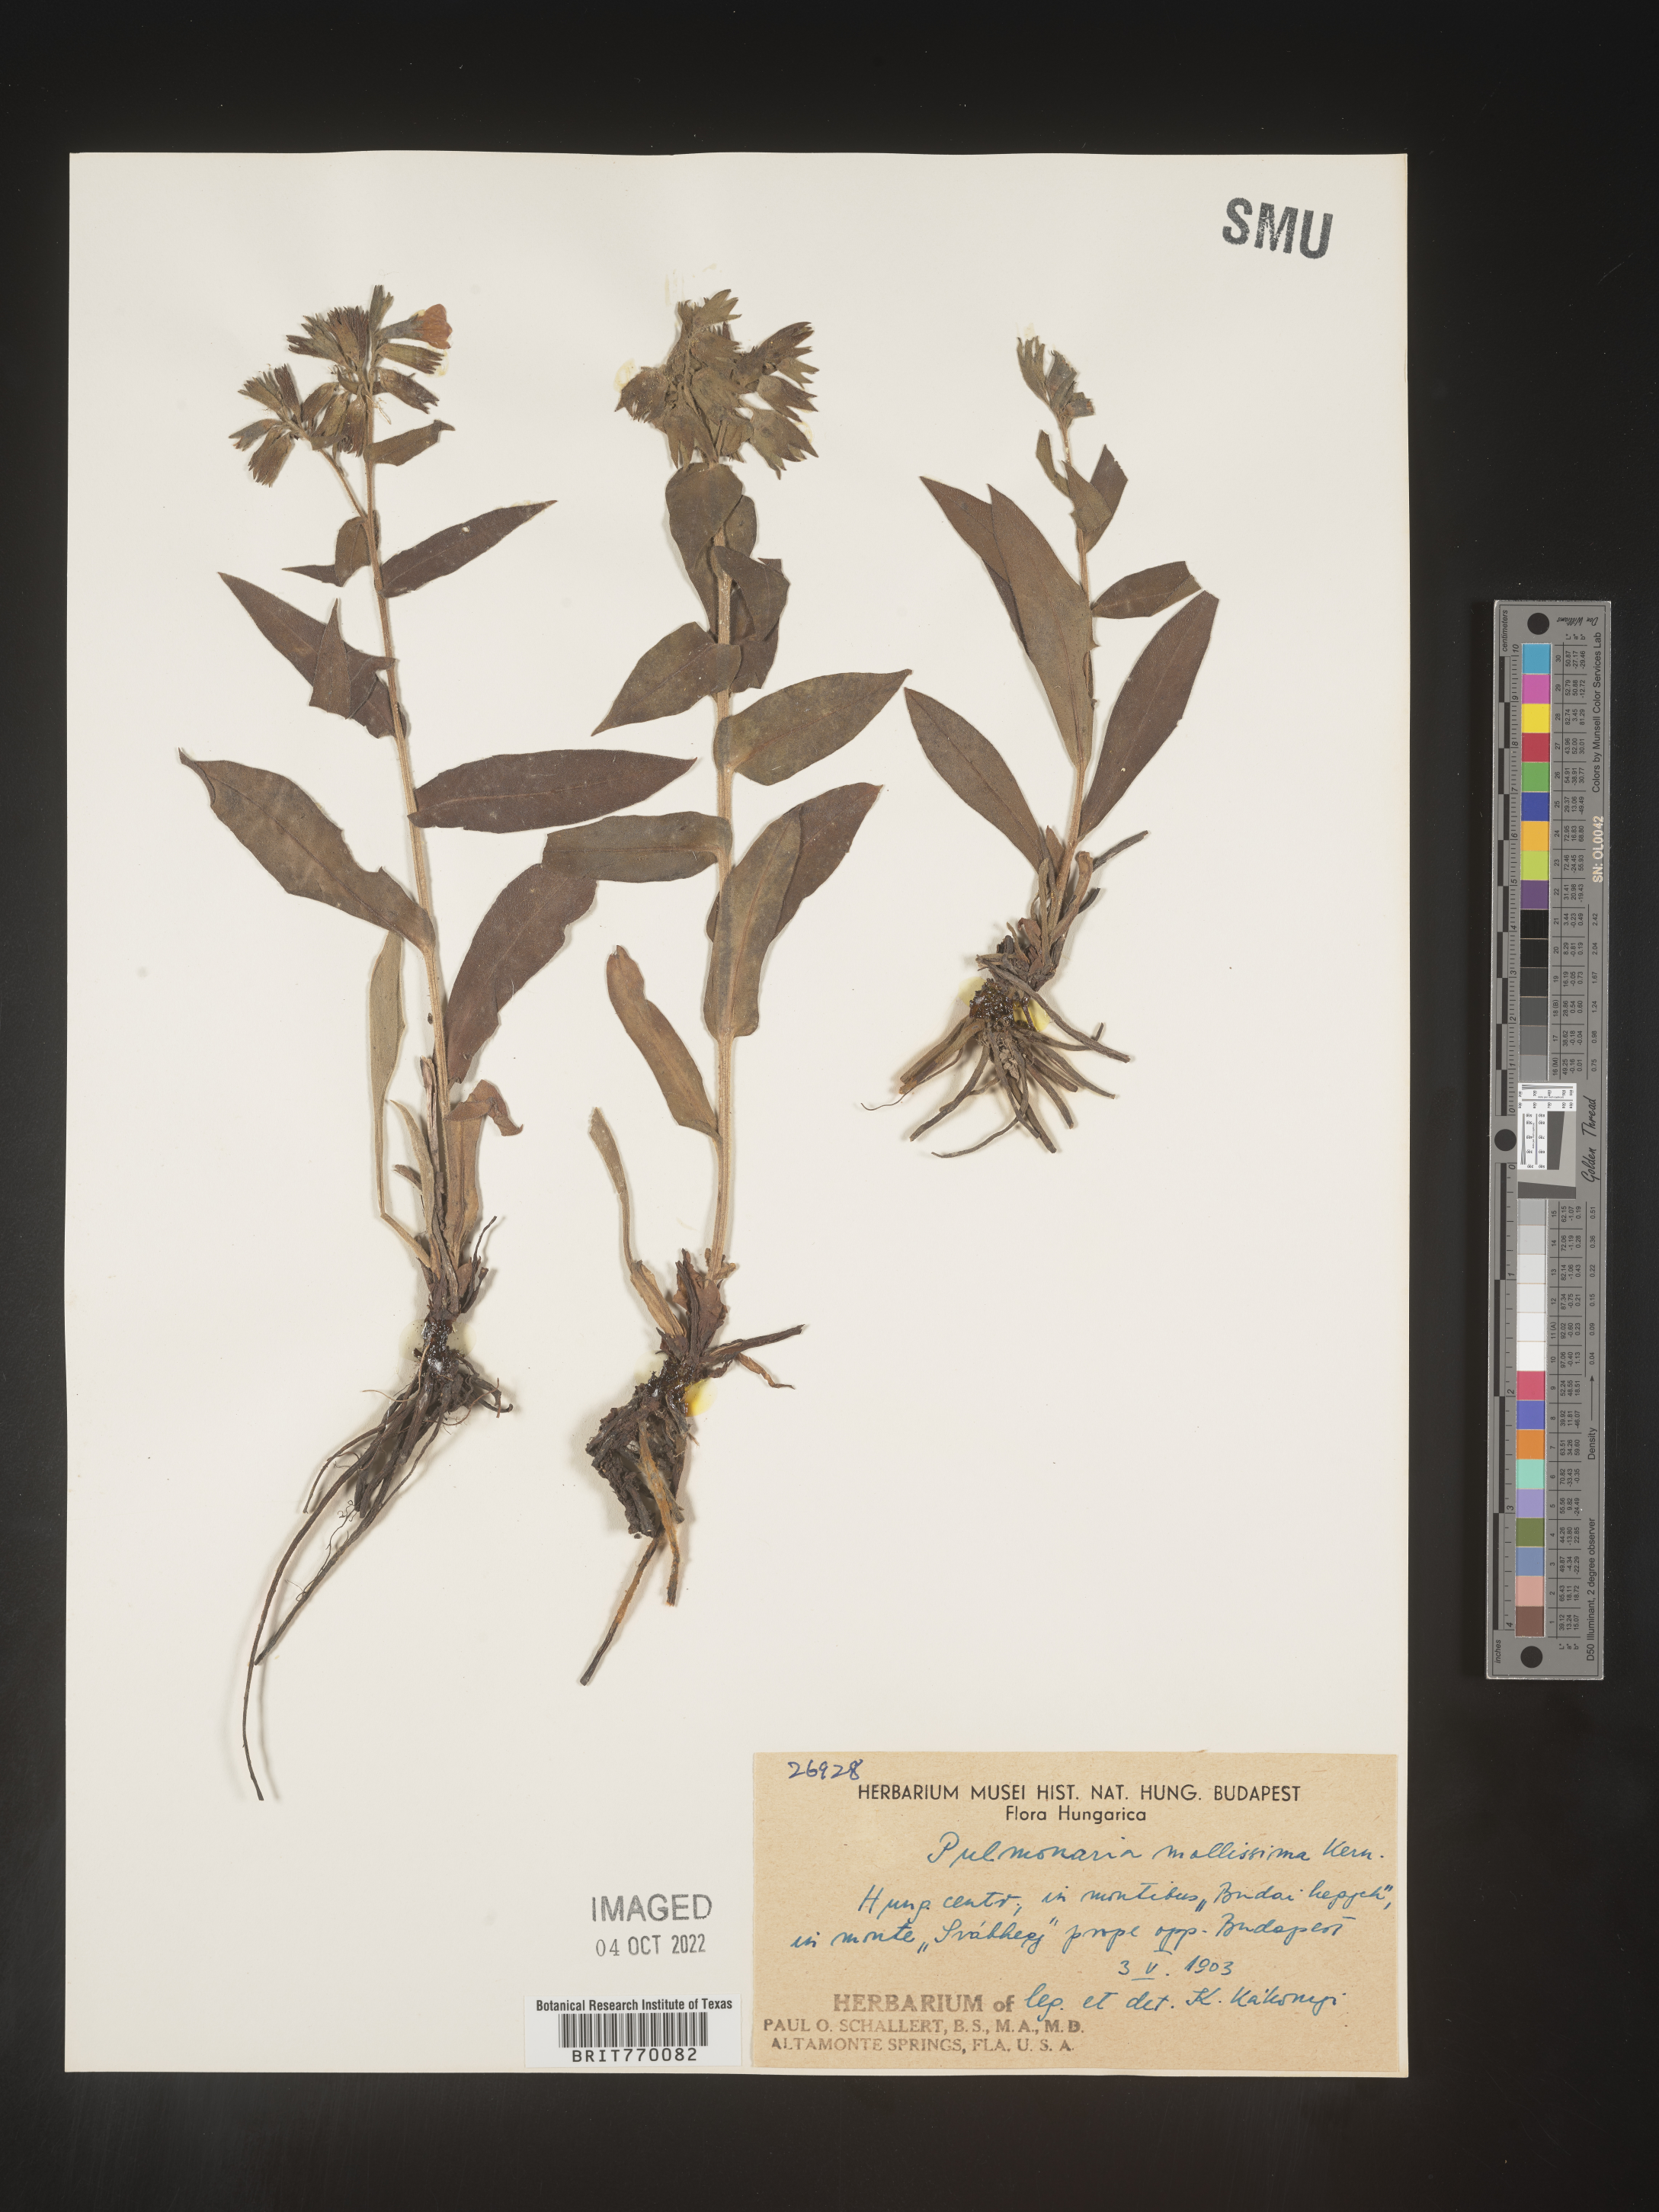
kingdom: Plantae
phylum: Tracheophyta
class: Magnoliopsida
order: Boraginales
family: Boraginaceae
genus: Pulmonaria
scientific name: Pulmonaria
